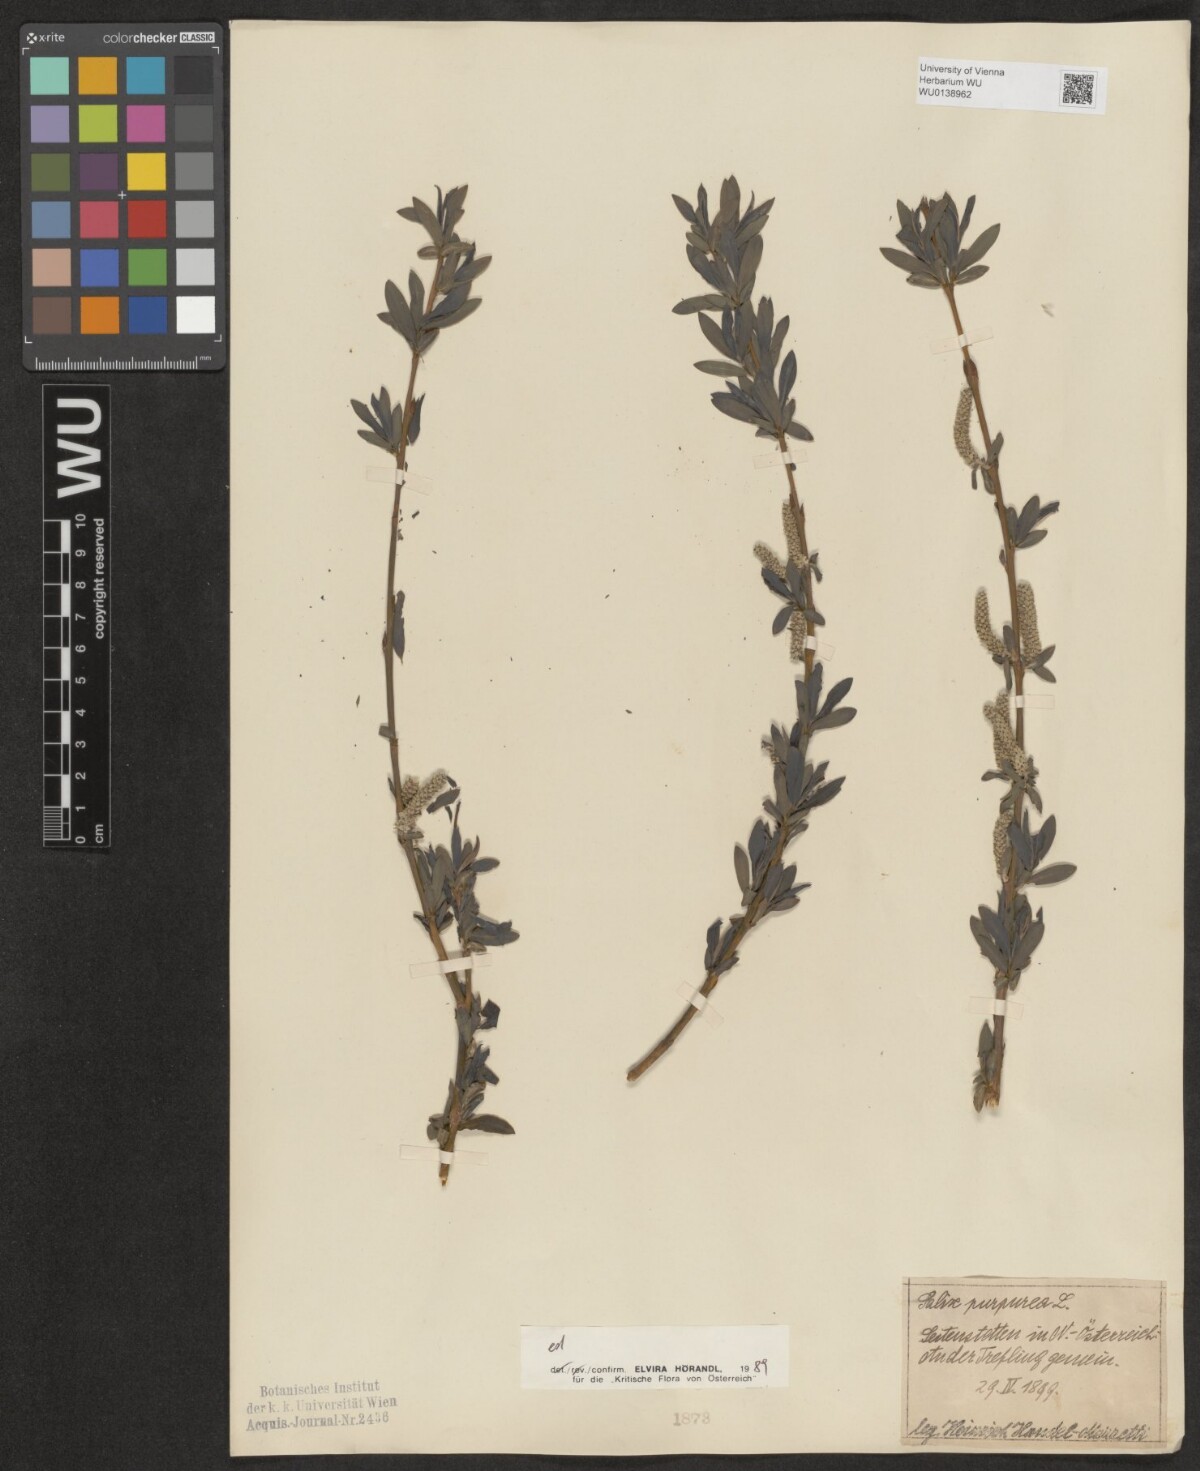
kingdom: Plantae
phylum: Tracheophyta
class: Magnoliopsida
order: Malpighiales
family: Salicaceae
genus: Salix
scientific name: Salix purpurea
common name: Purple willow
